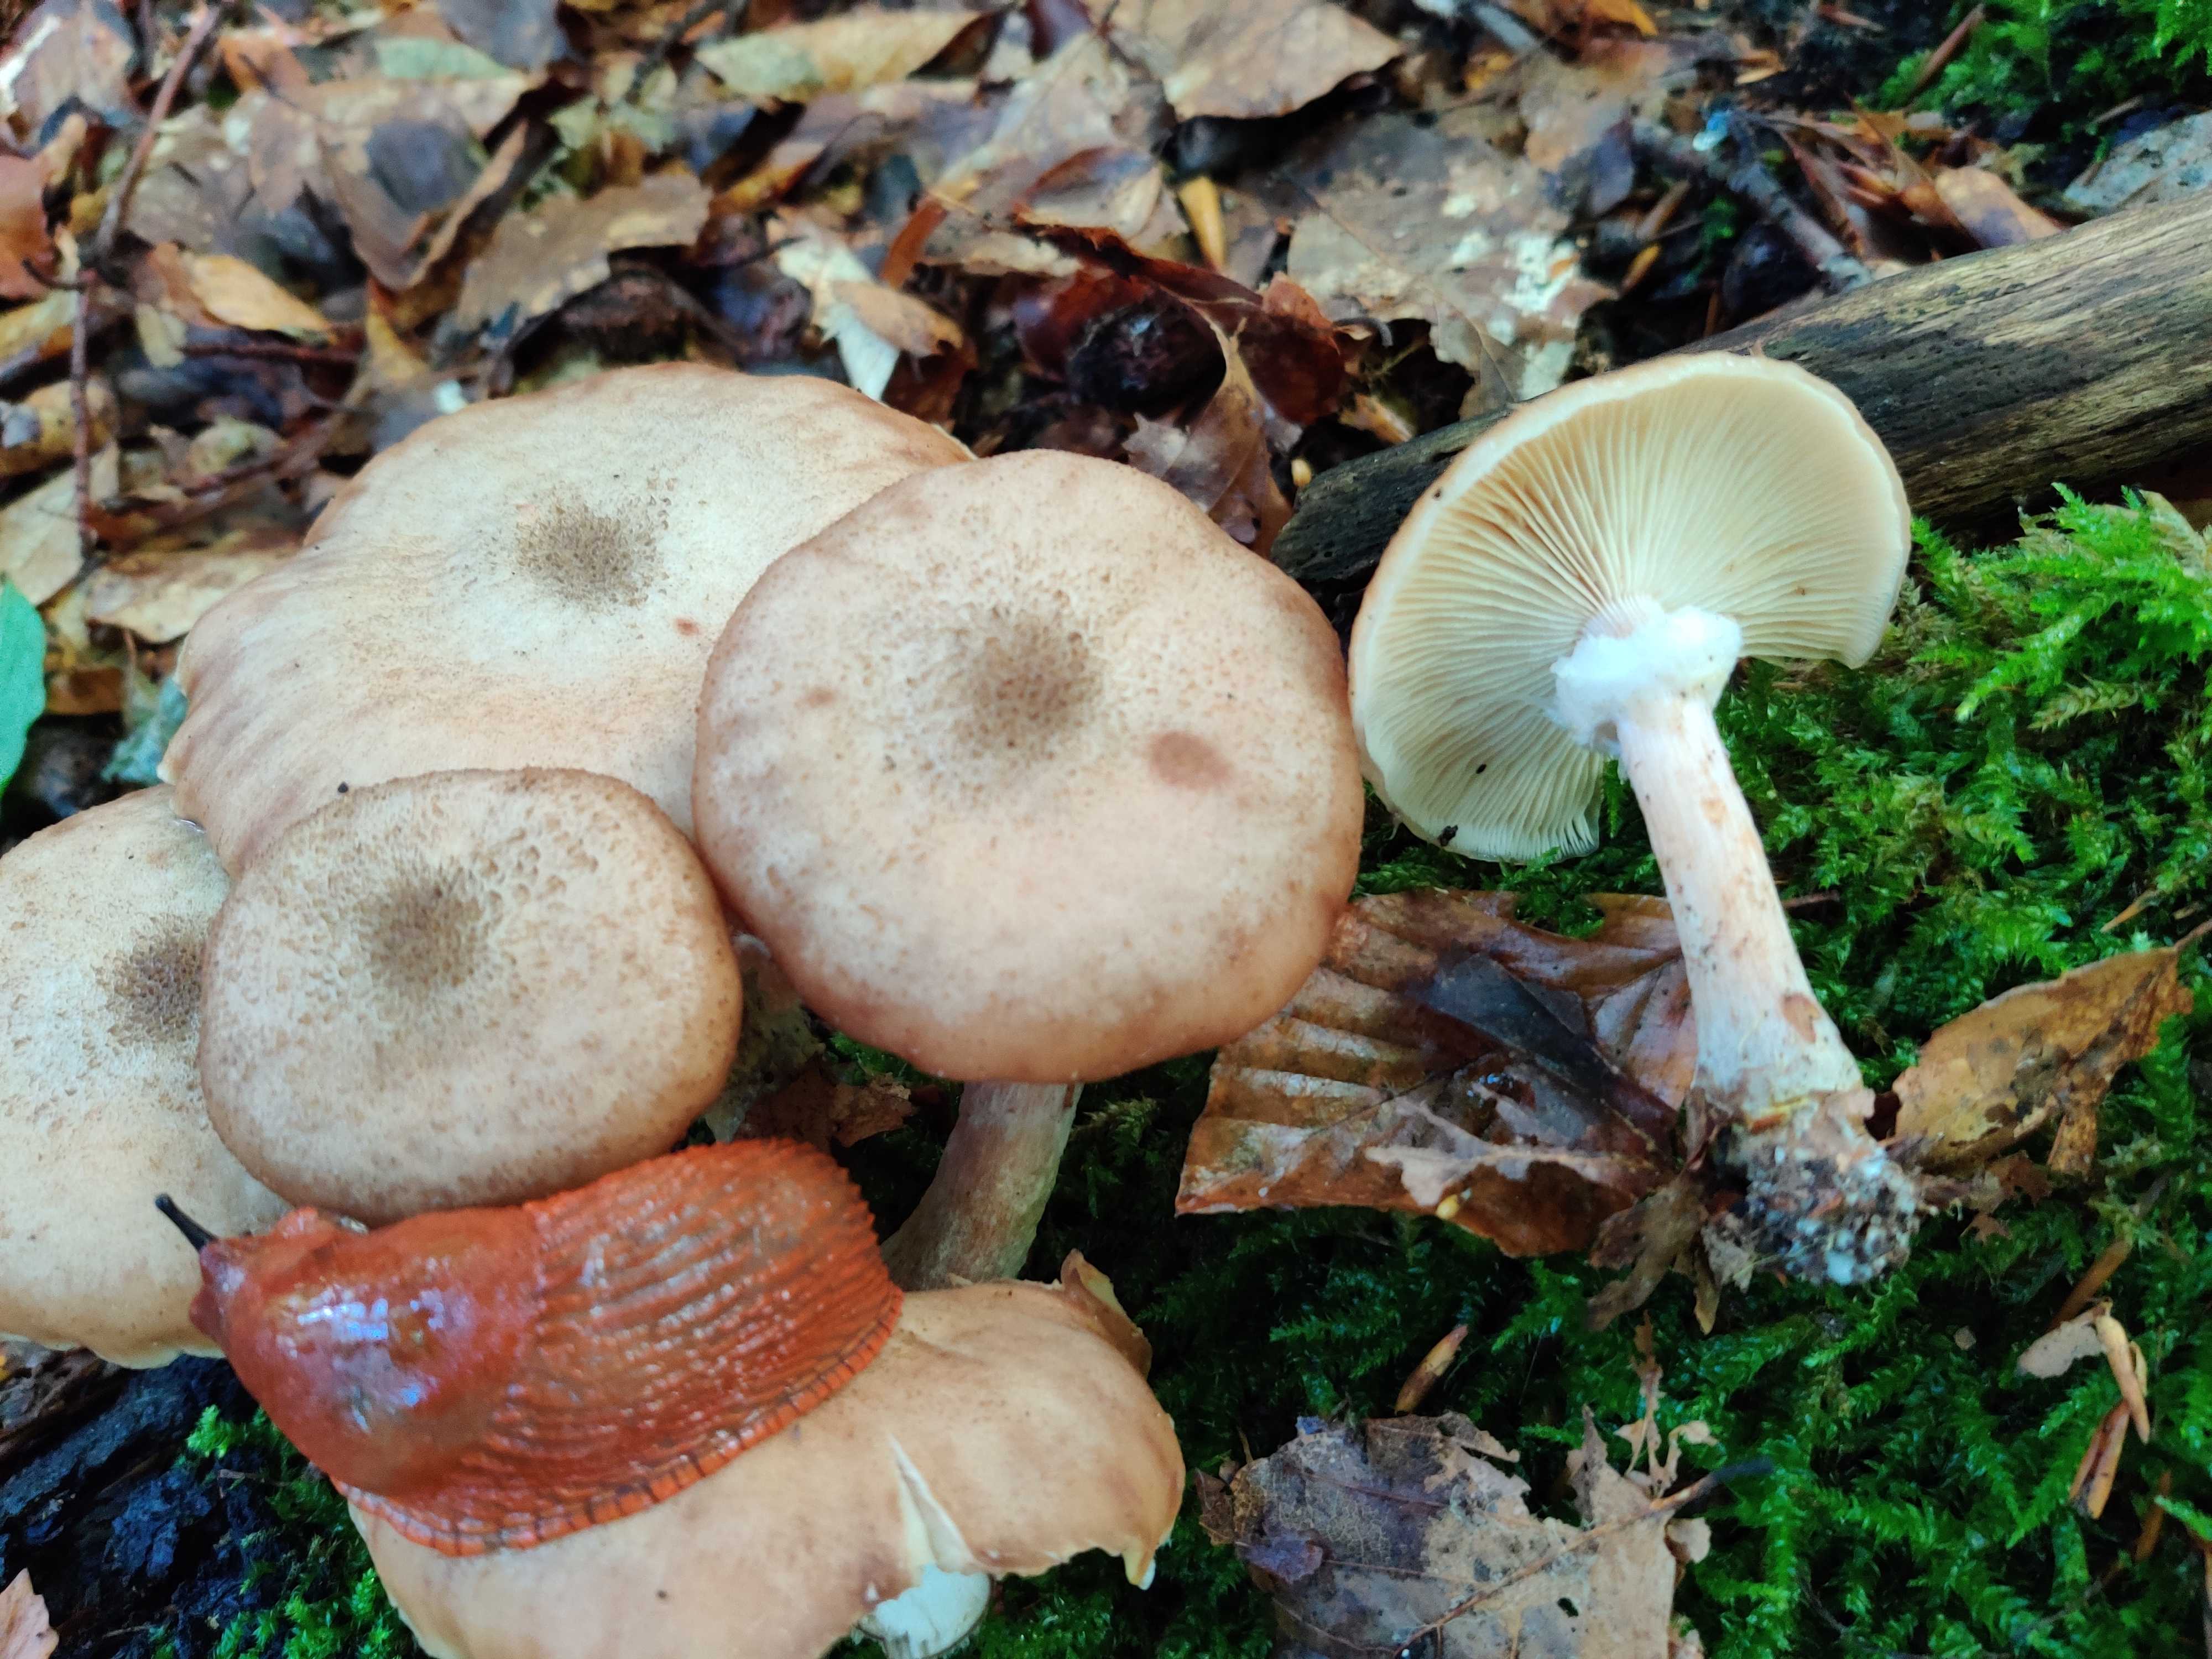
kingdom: Fungi
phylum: Basidiomycota
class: Agaricomycetes
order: Agaricales
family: Physalacriaceae
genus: Armillaria
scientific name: Armillaria lutea
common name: køllestokket honningsvamp
